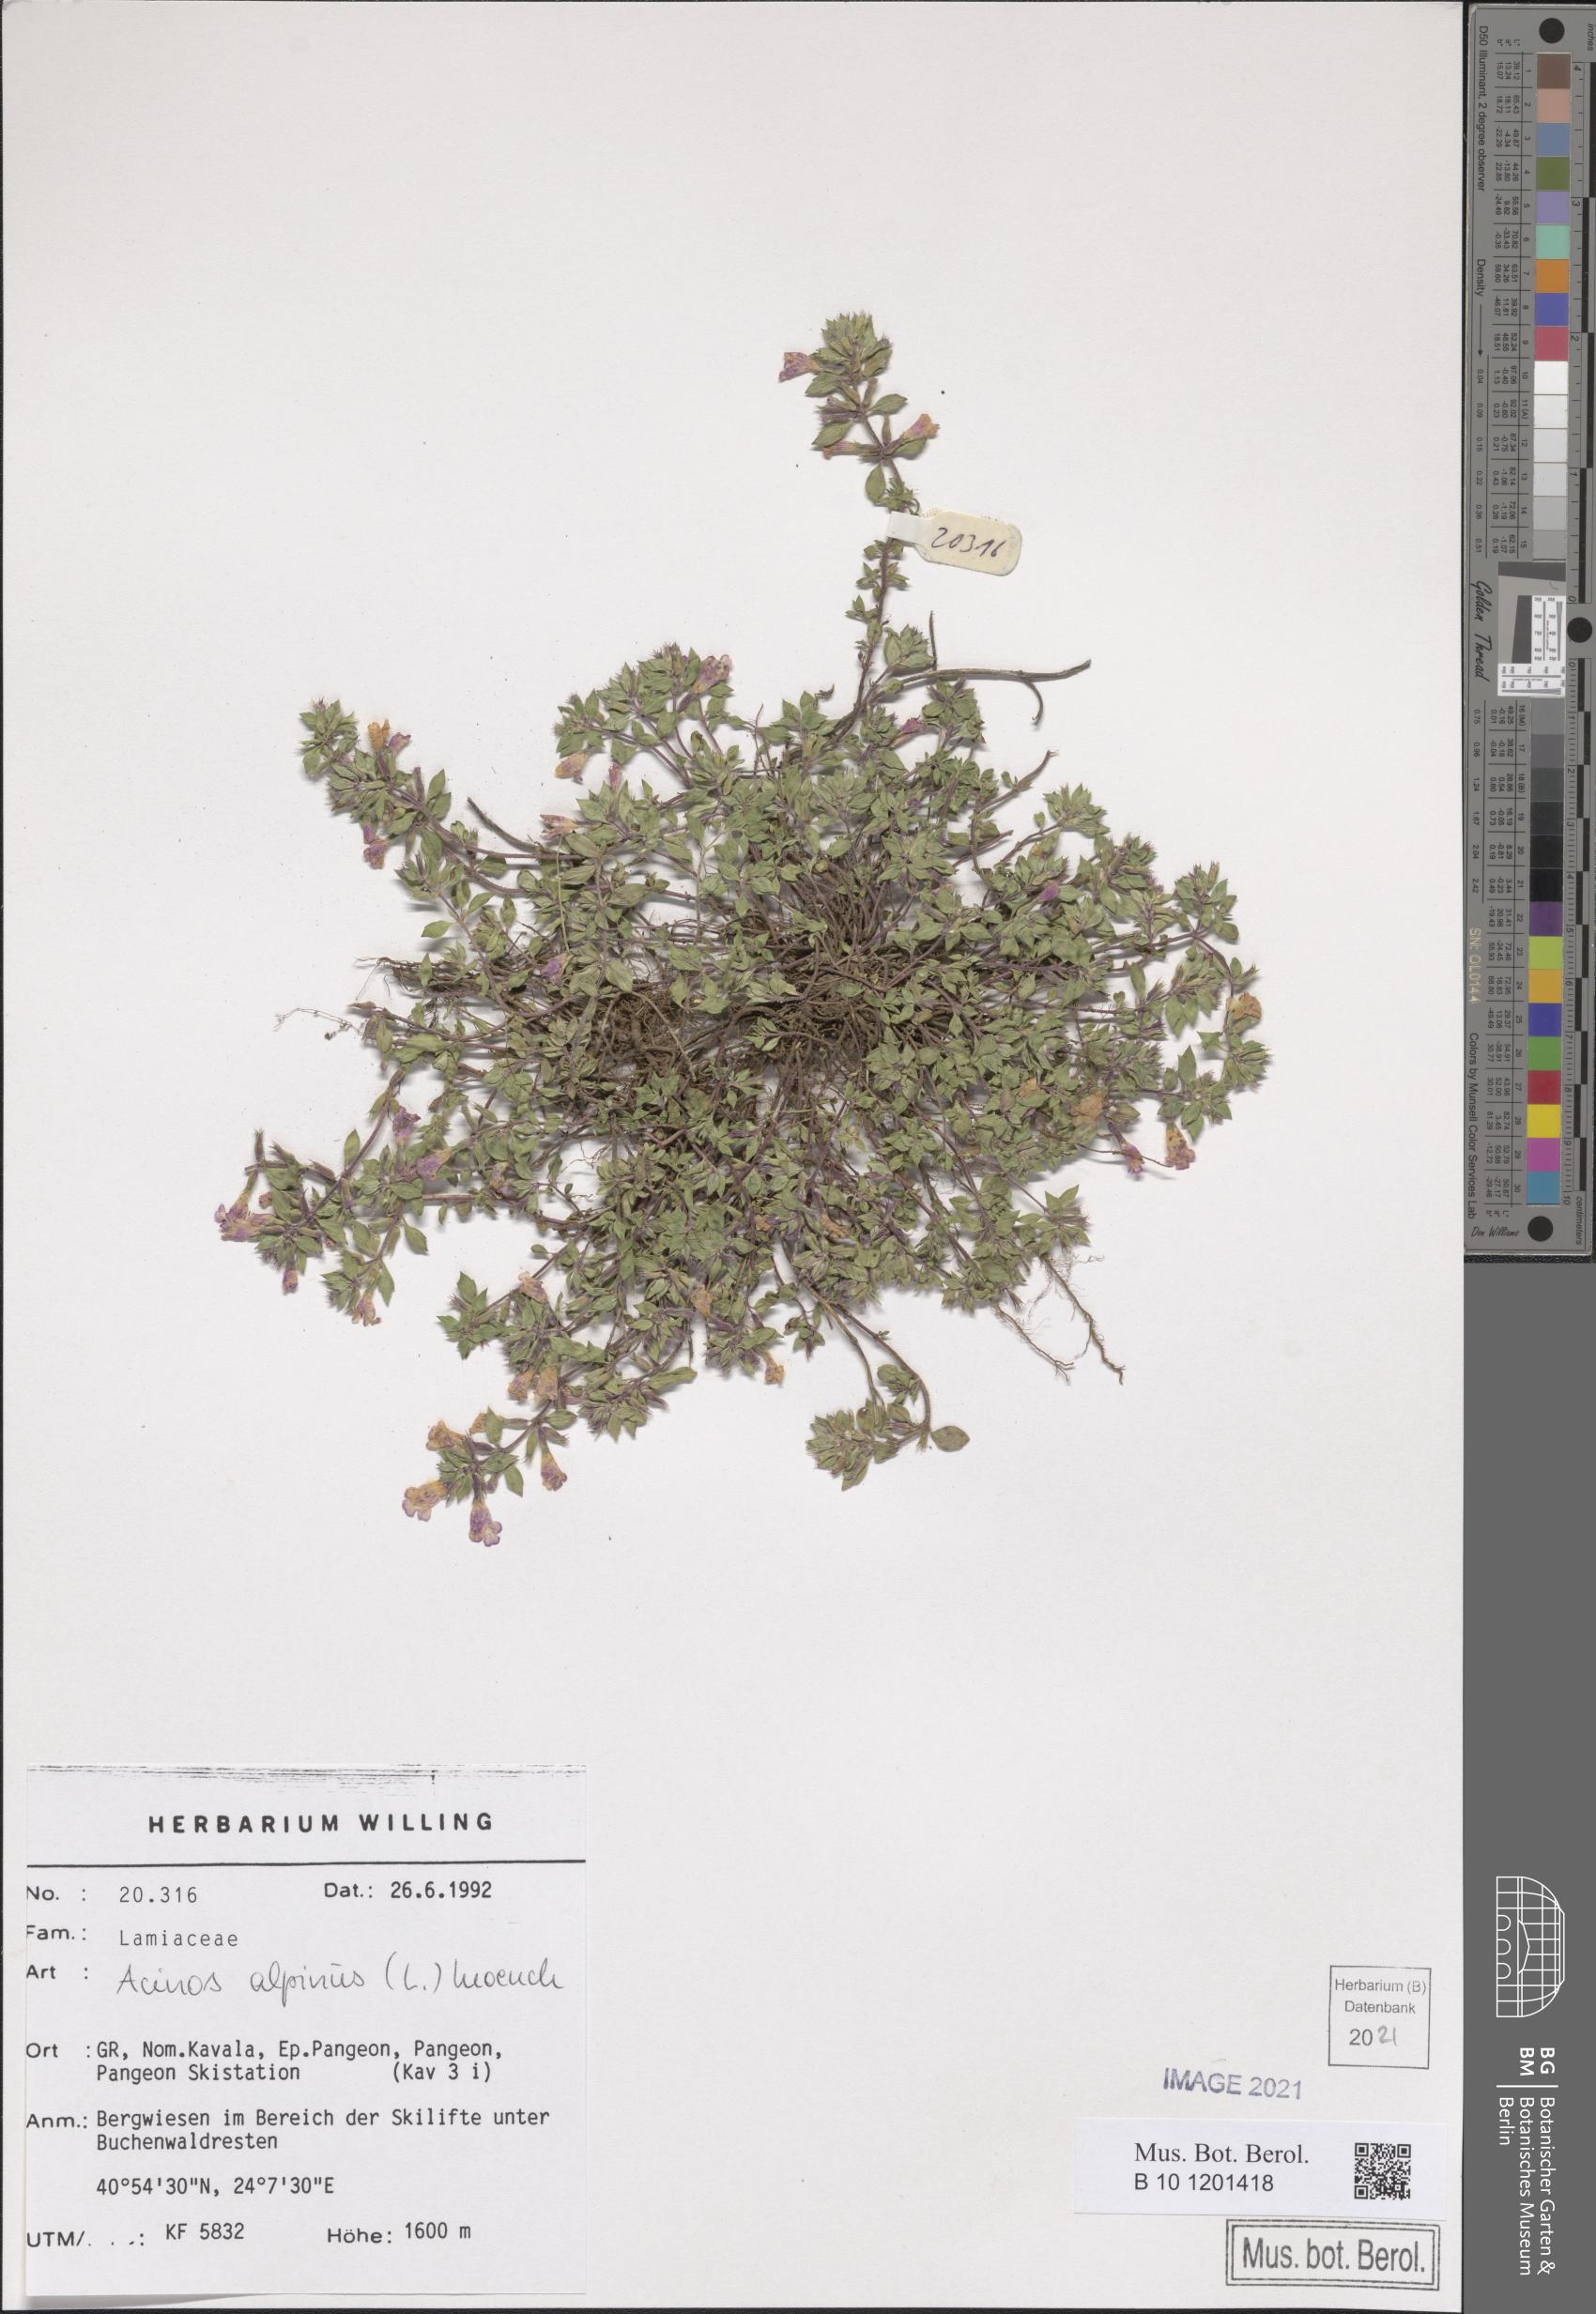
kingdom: Plantae
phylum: Tracheophyta
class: Magnoliopsida
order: Lamiales
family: Lamiaceae
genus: Clinopodium
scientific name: Clinopodium alpinum
